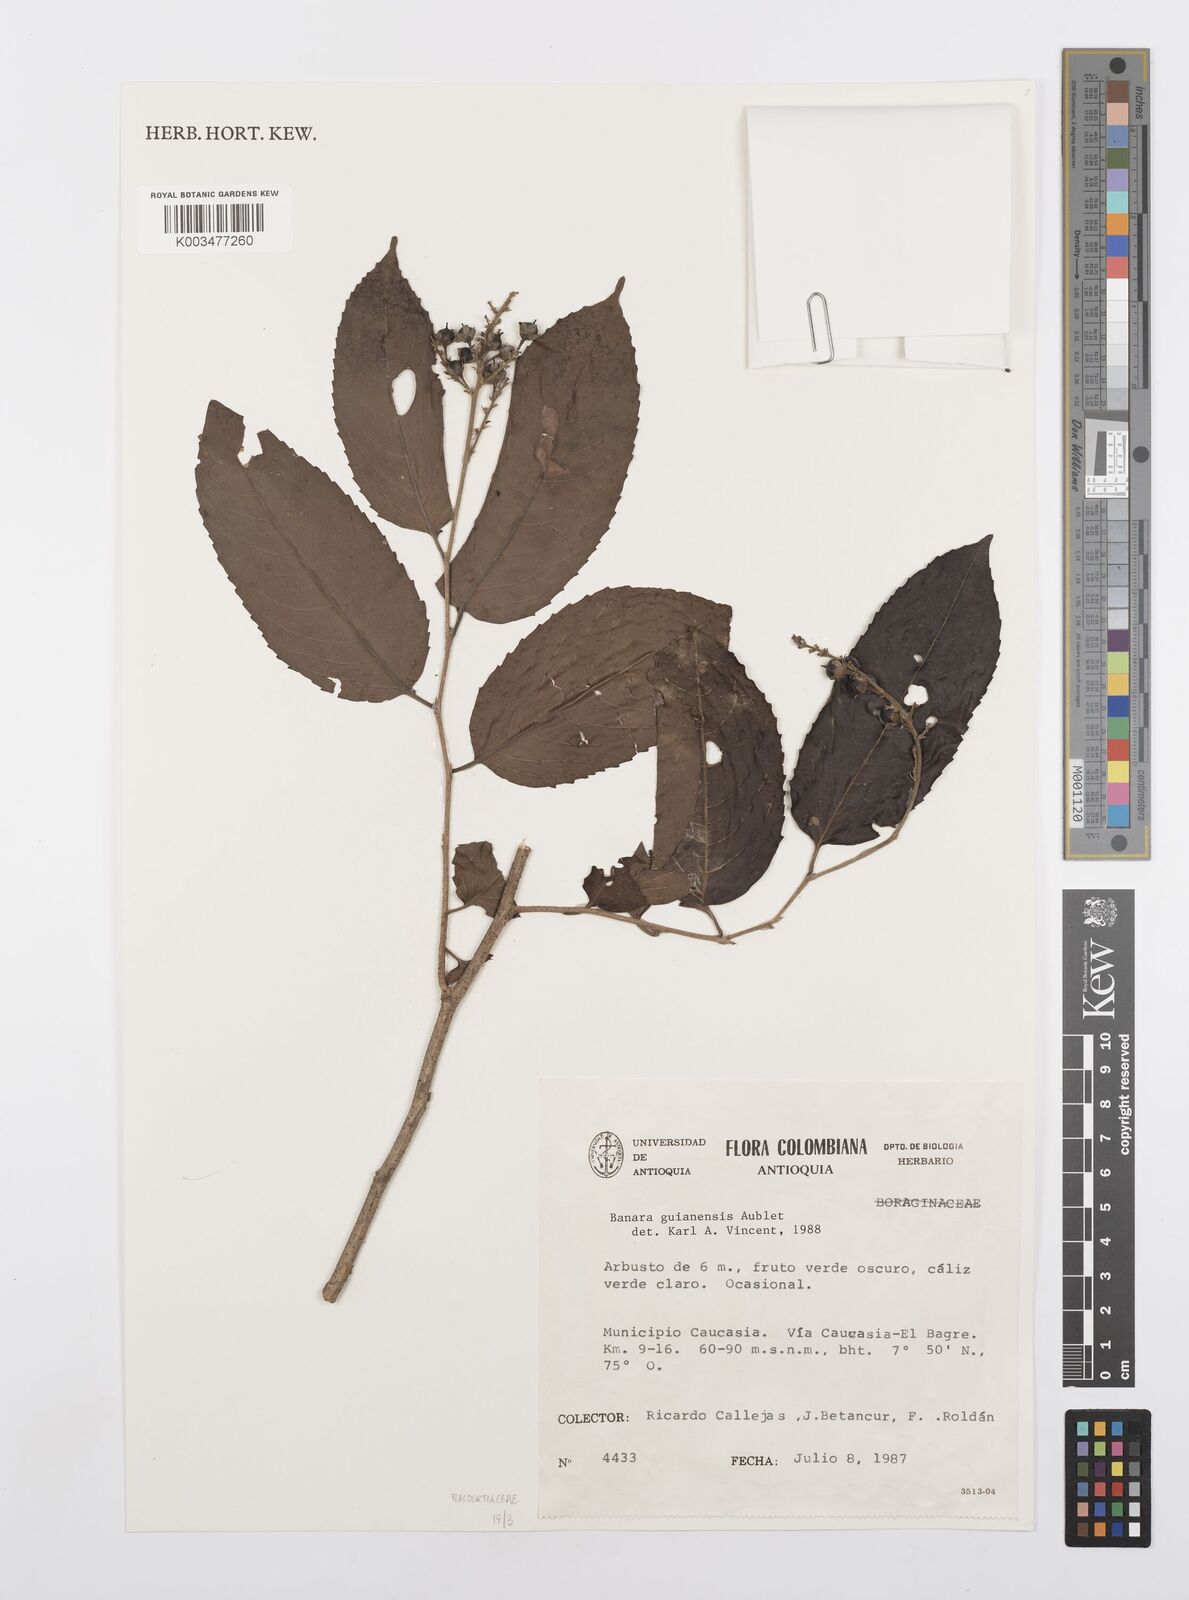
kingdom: Plantae
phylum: Tracheophyta
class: Magnoliopsida
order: Malpighiales
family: Salicaceae
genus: Banara
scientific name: Banara guianensis
